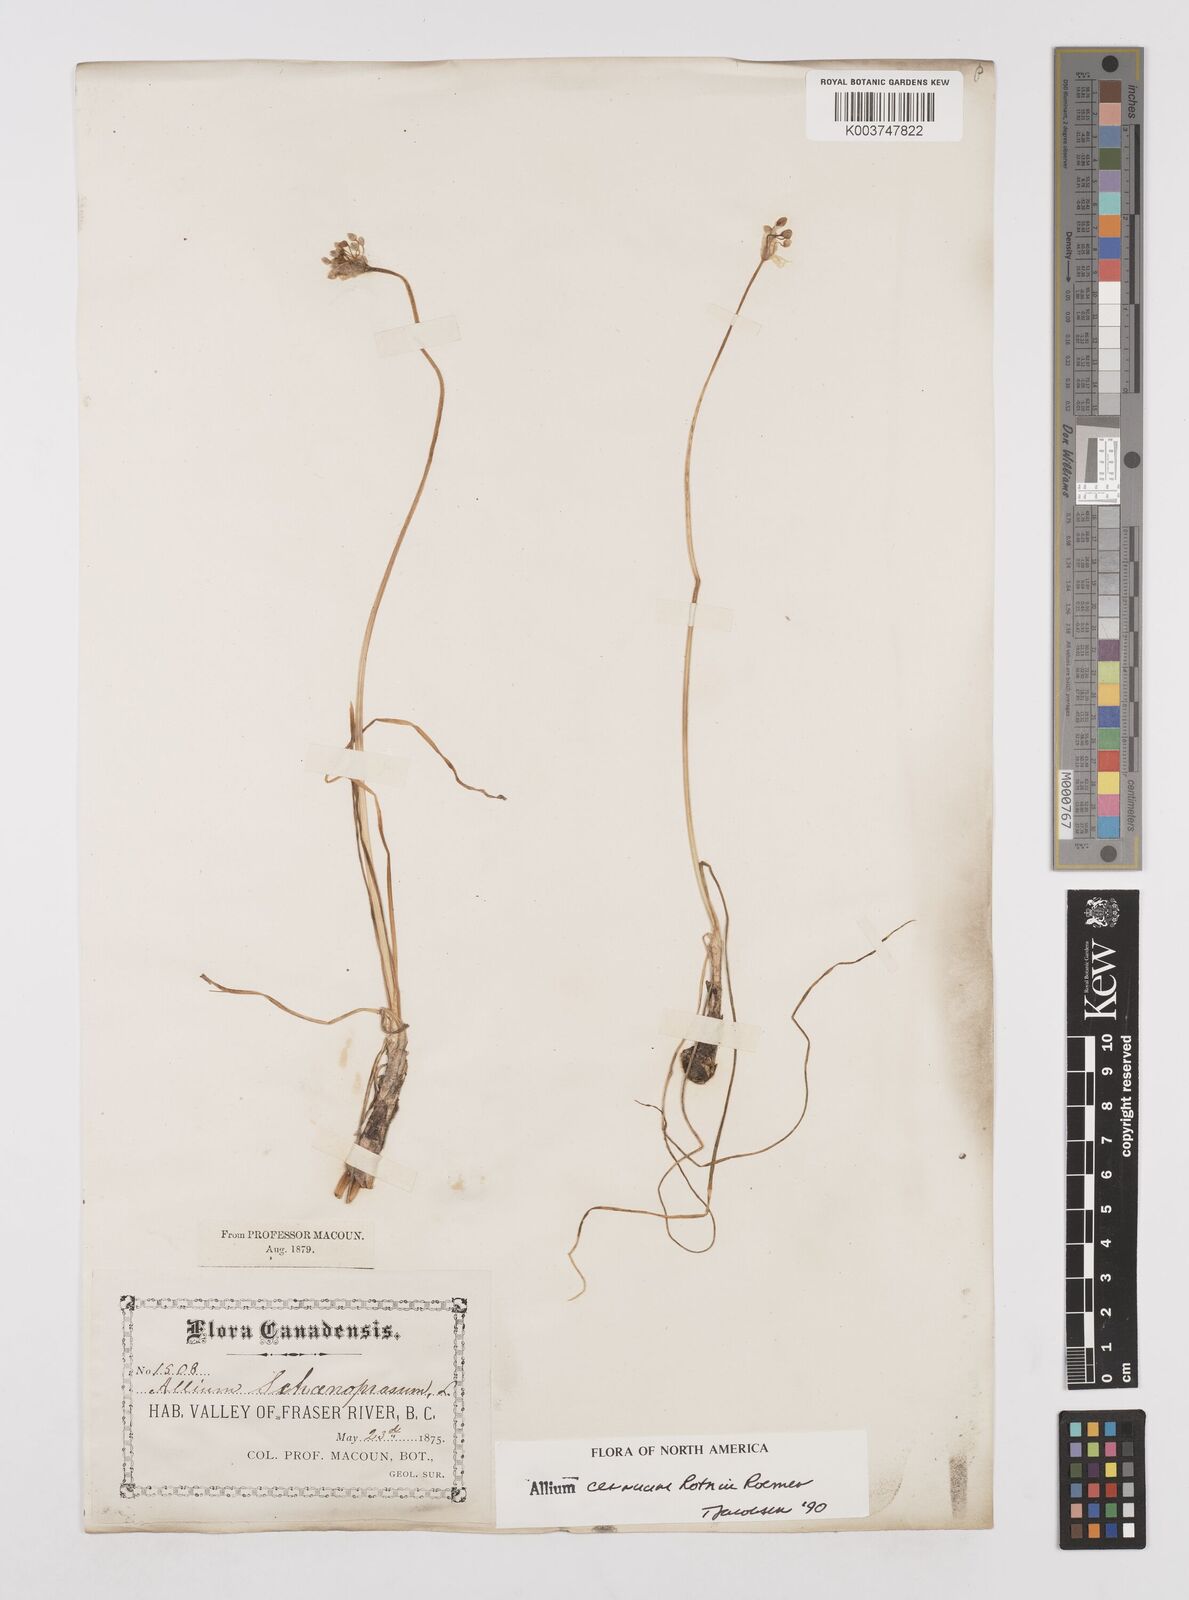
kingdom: Plantae
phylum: Tracheophyta
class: Liliopsida
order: Asparagales
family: Amaryllidaceae
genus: Allium
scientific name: Allium cernuum
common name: Nodding onion
